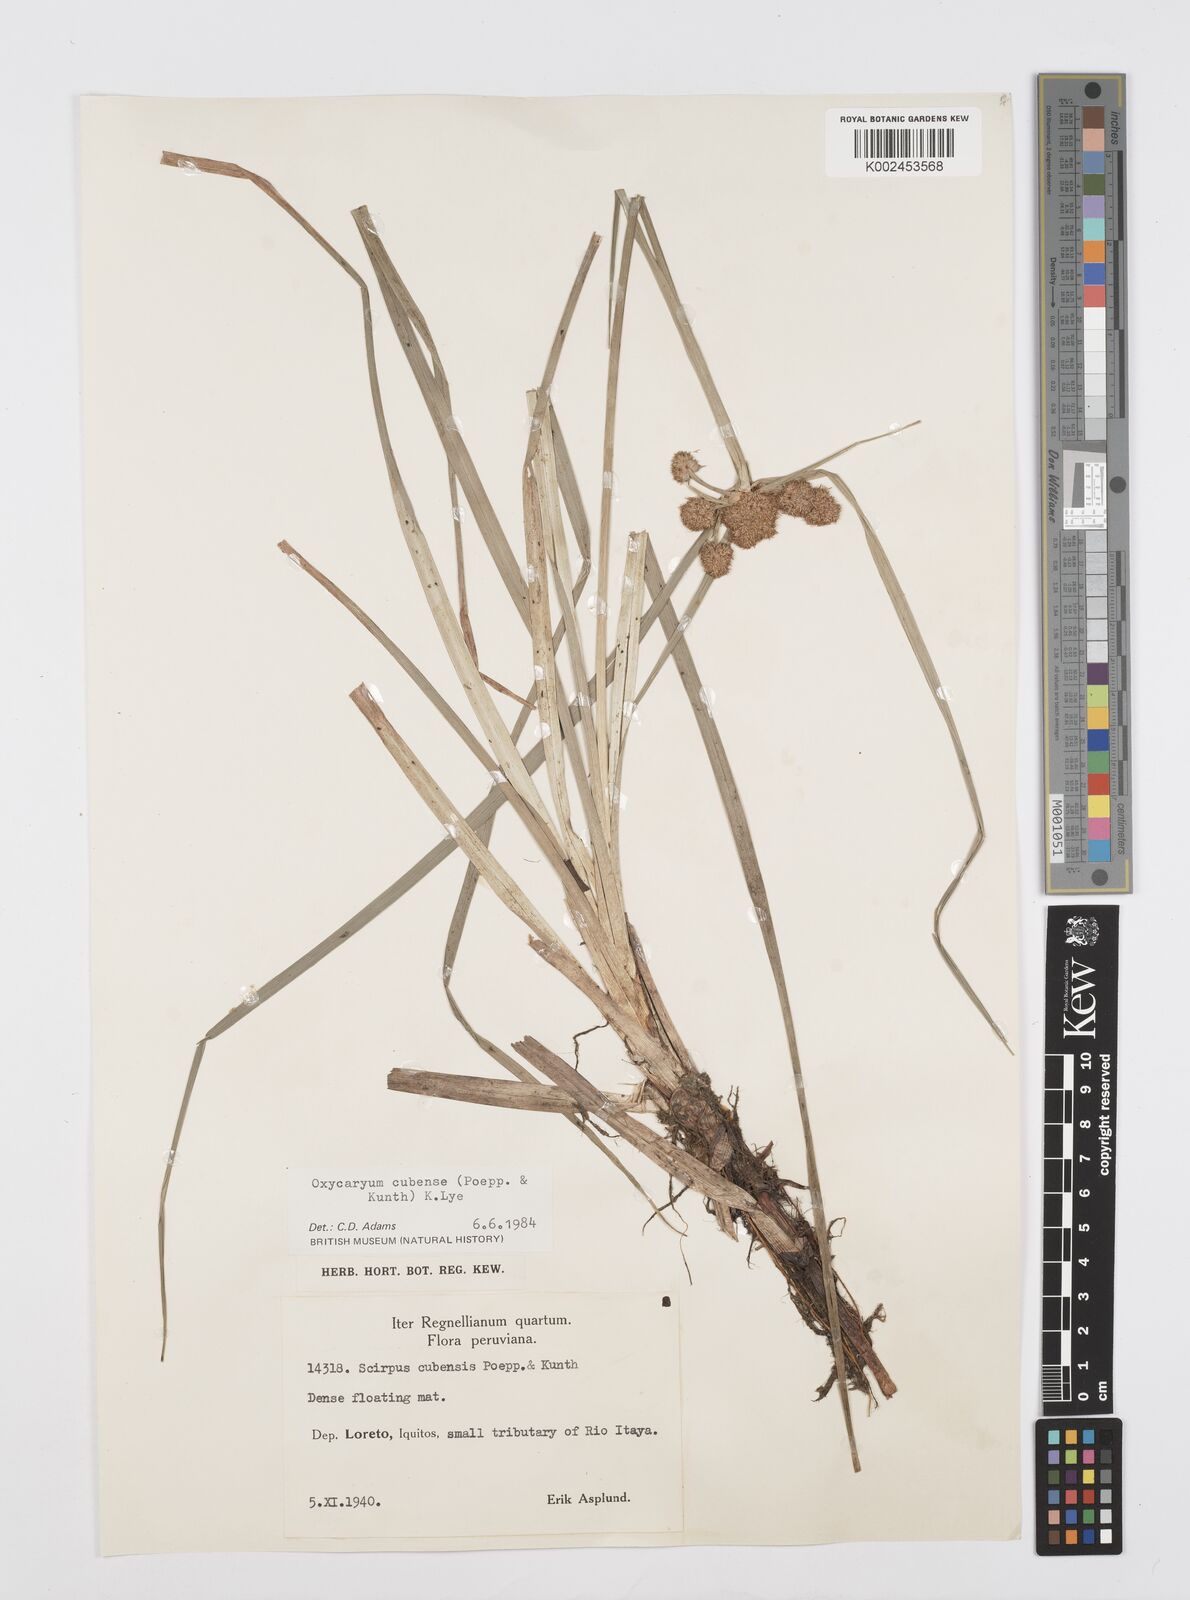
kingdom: Plantae
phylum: Tracheophyta
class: Liliopsida
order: Poales
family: Cyperaceae
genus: Cyperus
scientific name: Cyperus elegans
